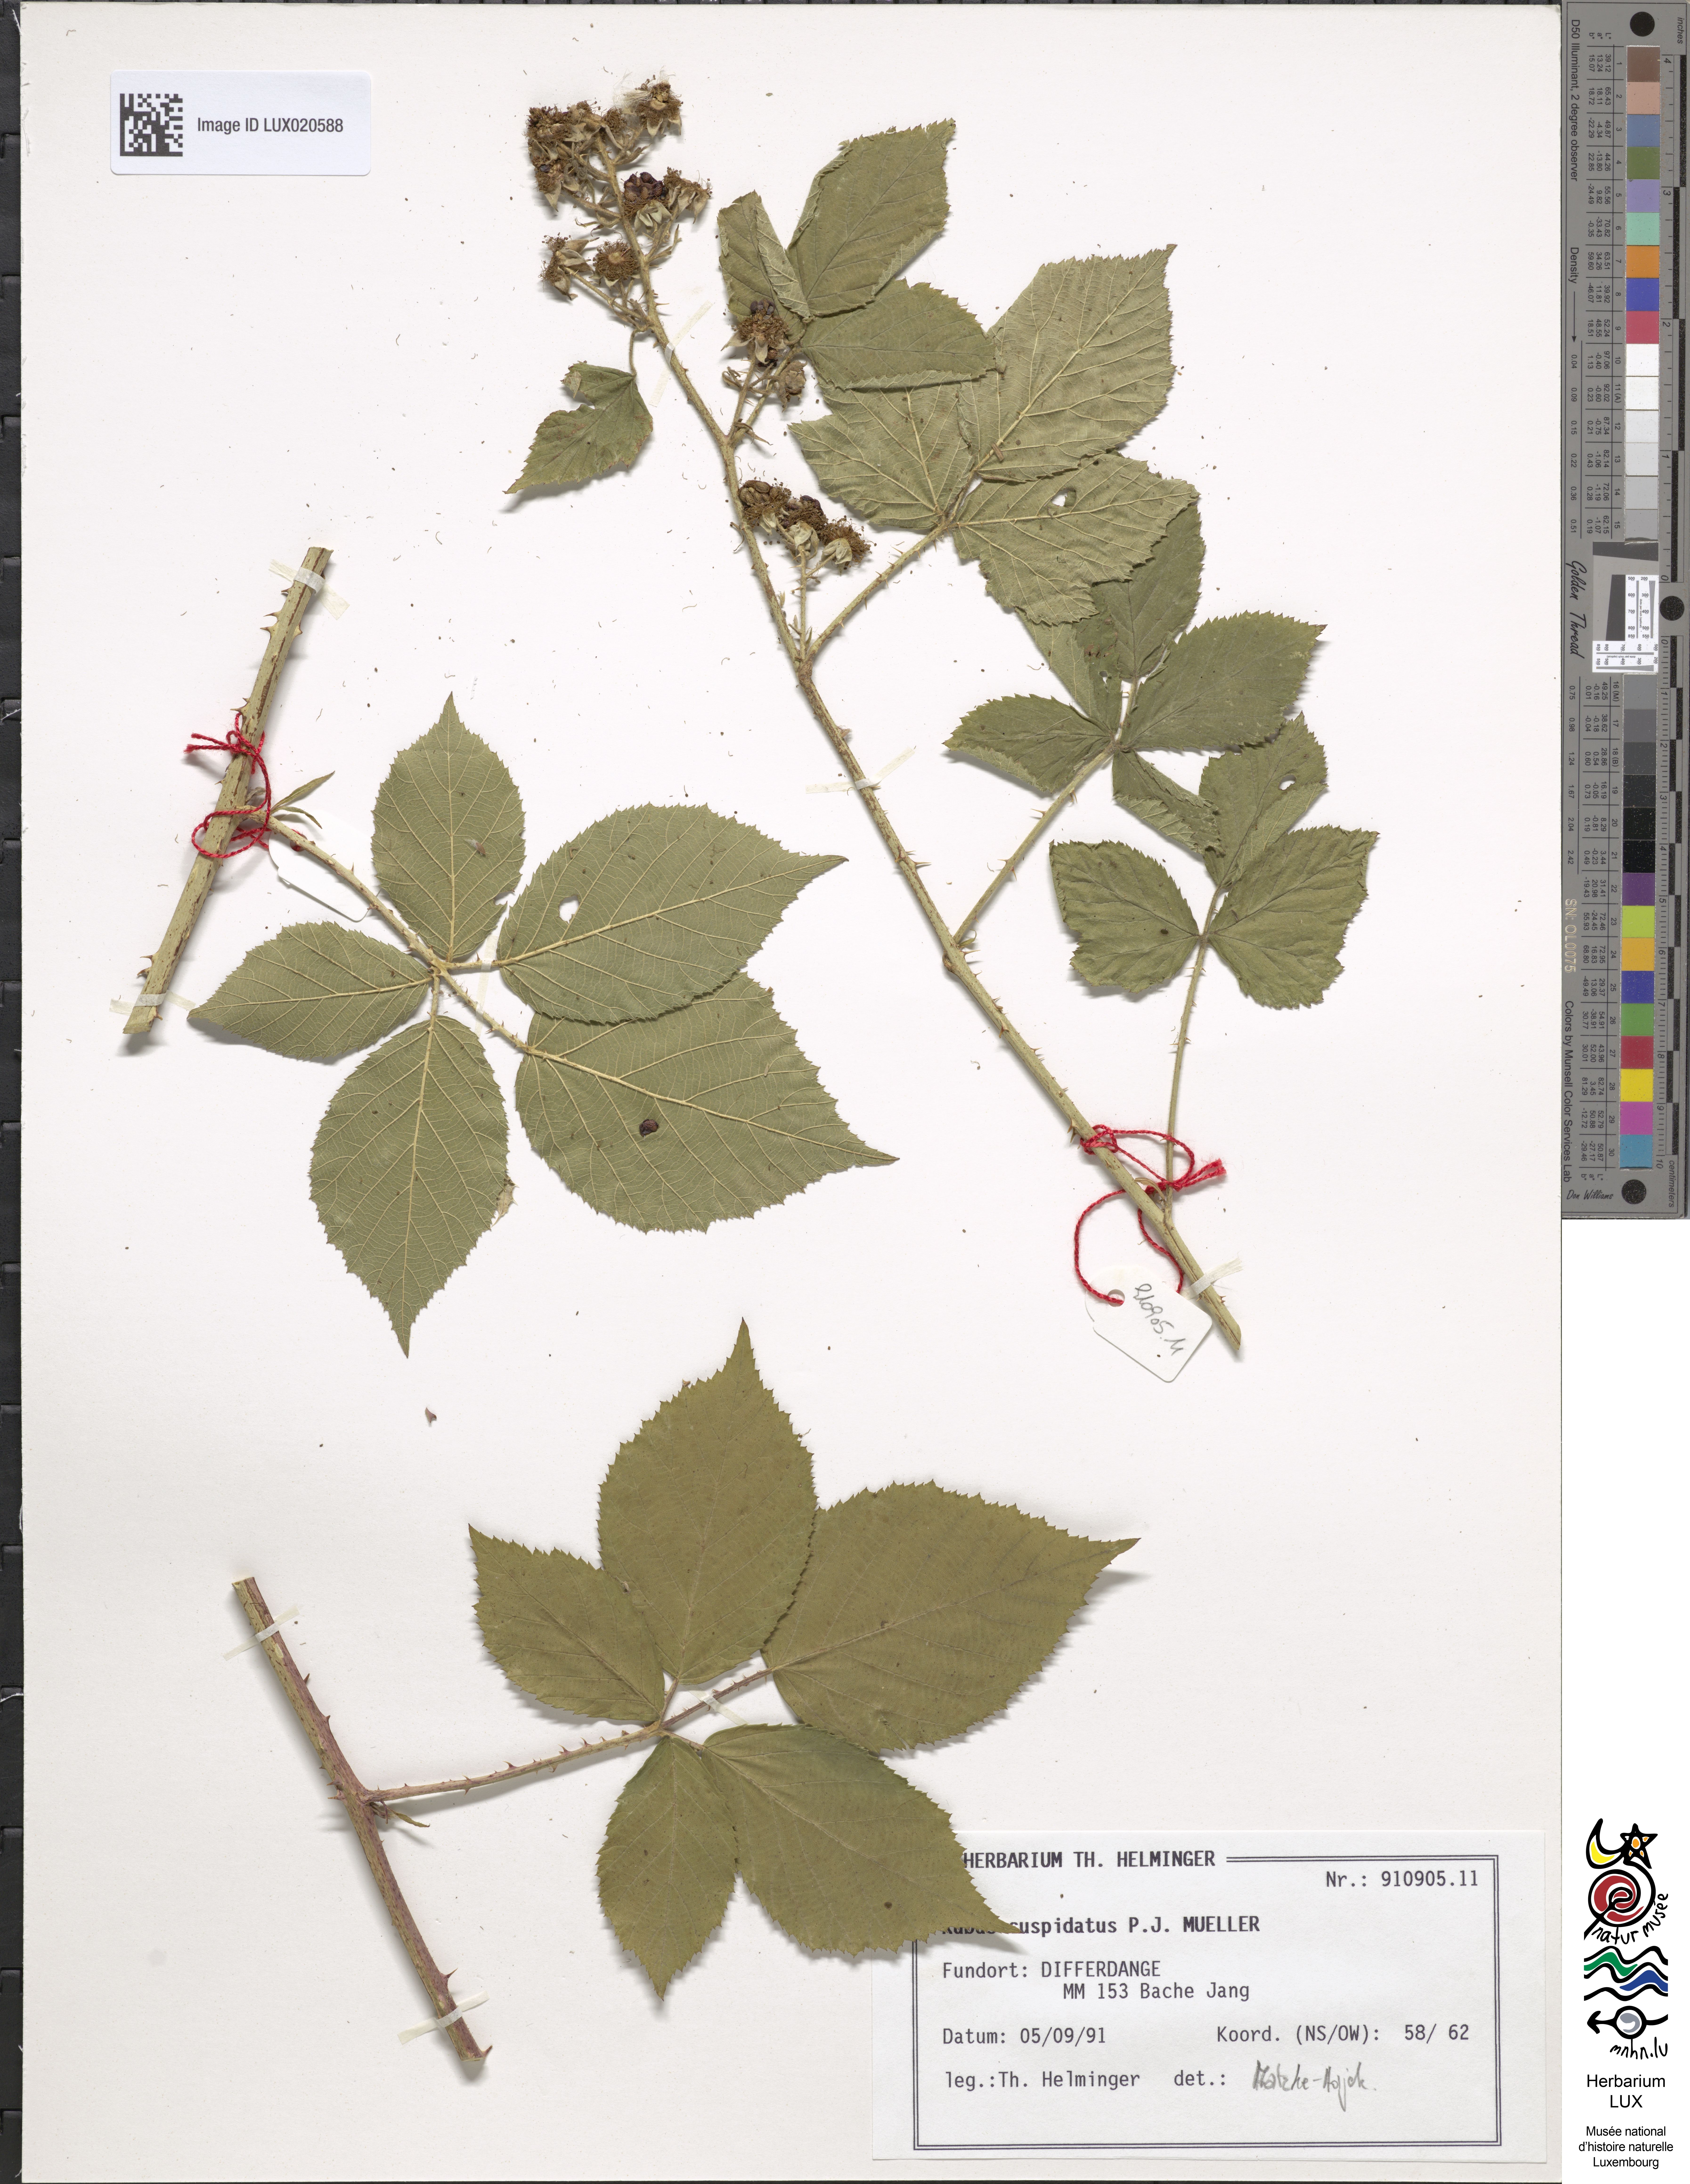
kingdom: Plantae
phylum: Tracheophyta
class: Magnoliopsida
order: Rosales
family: Rosaceae
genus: Rubus
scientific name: Rubus cuspidatus
